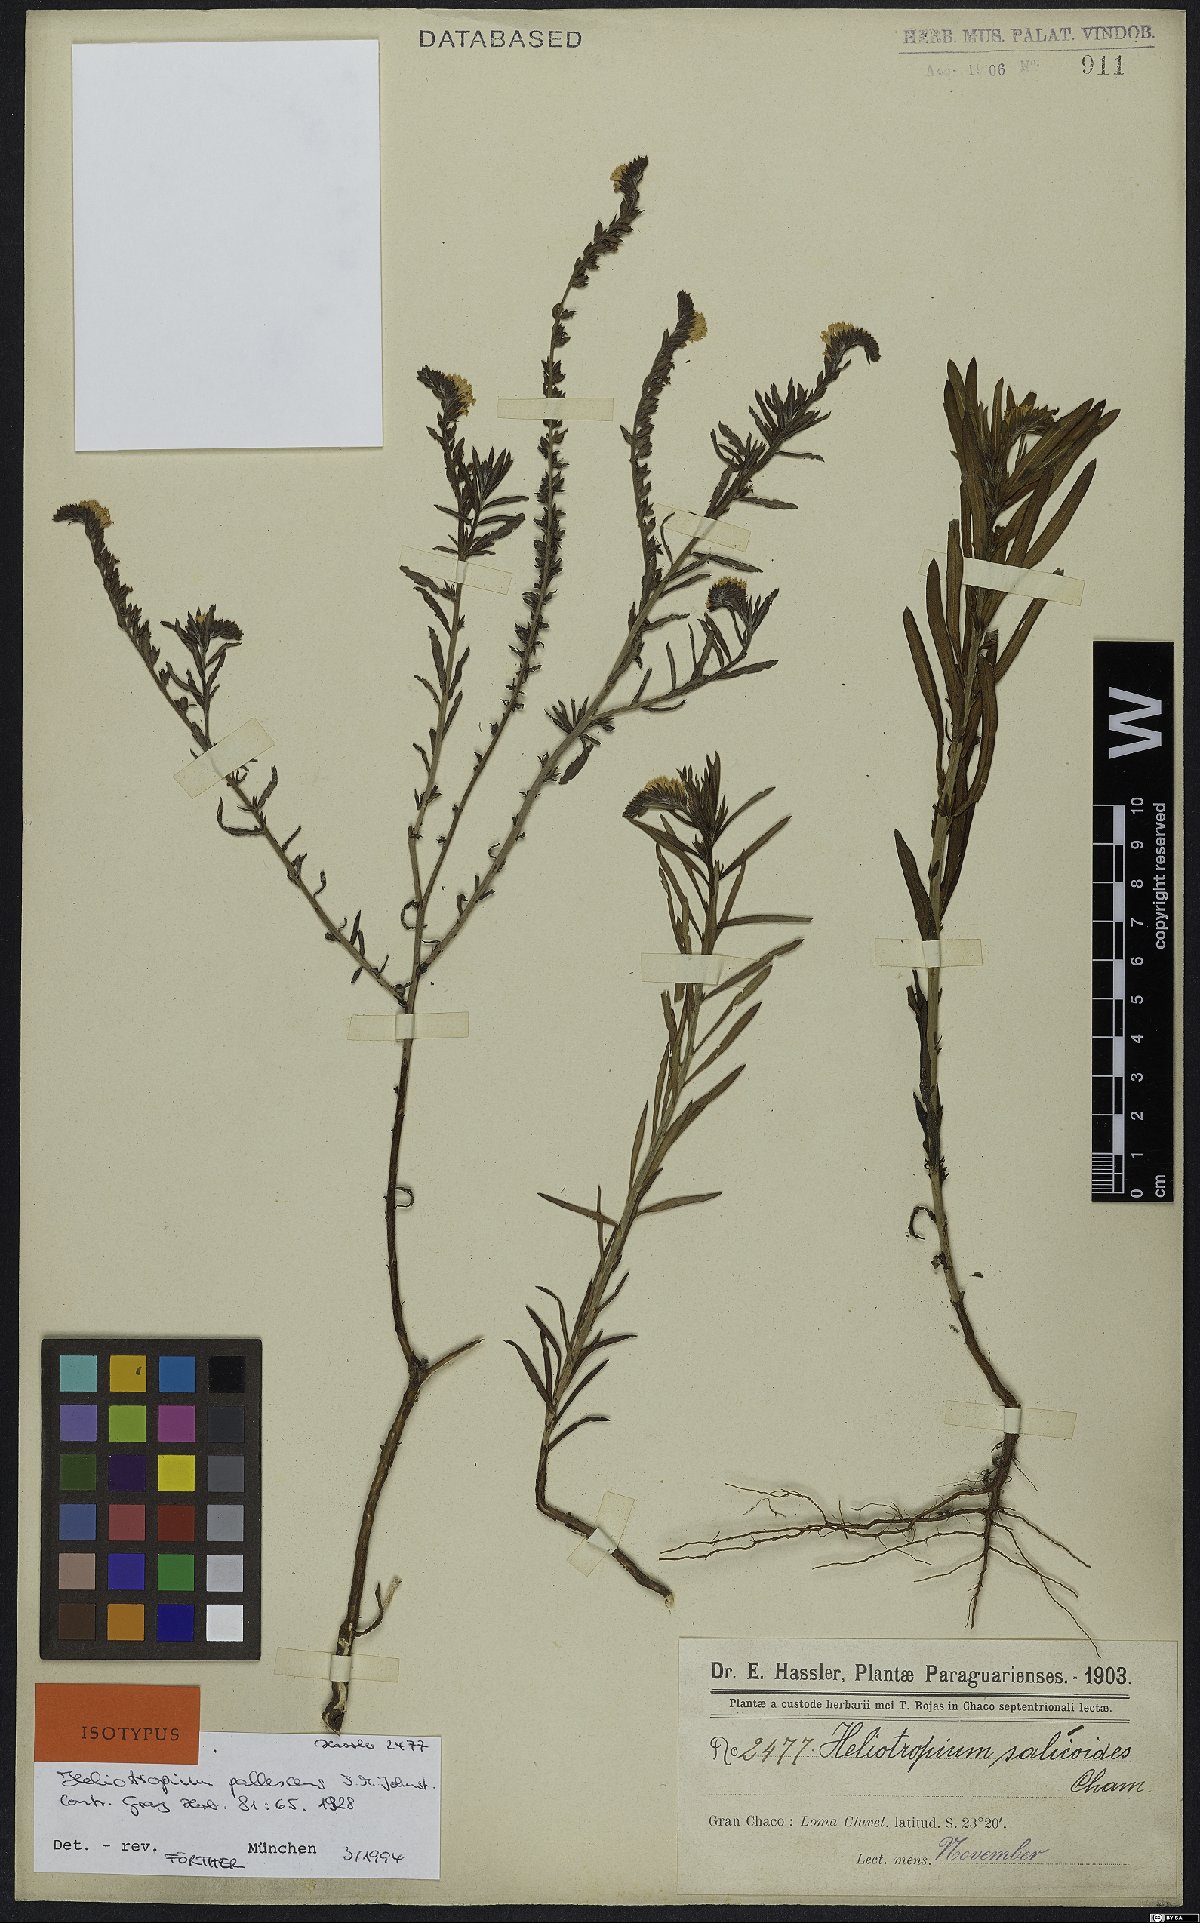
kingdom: Plantae
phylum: Tracheophyta
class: Magnoliopsida
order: Boraginales
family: Heliotropiaceae
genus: Euploca
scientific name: Euploca pallescens
